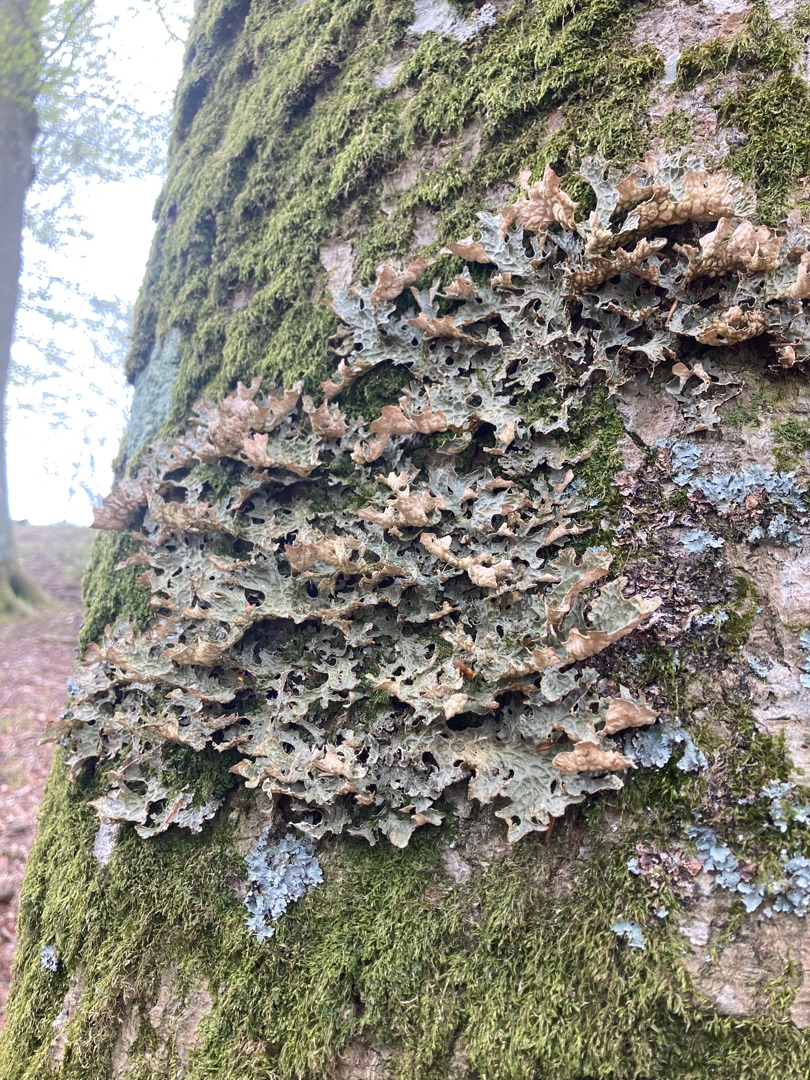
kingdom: Fungi
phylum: Ascomycota
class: Lecanoromycetes
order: Peltigerales
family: Lobariaceae
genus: Lobaria
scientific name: Lobaria pulmonaria
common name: Almindelig lungelav
